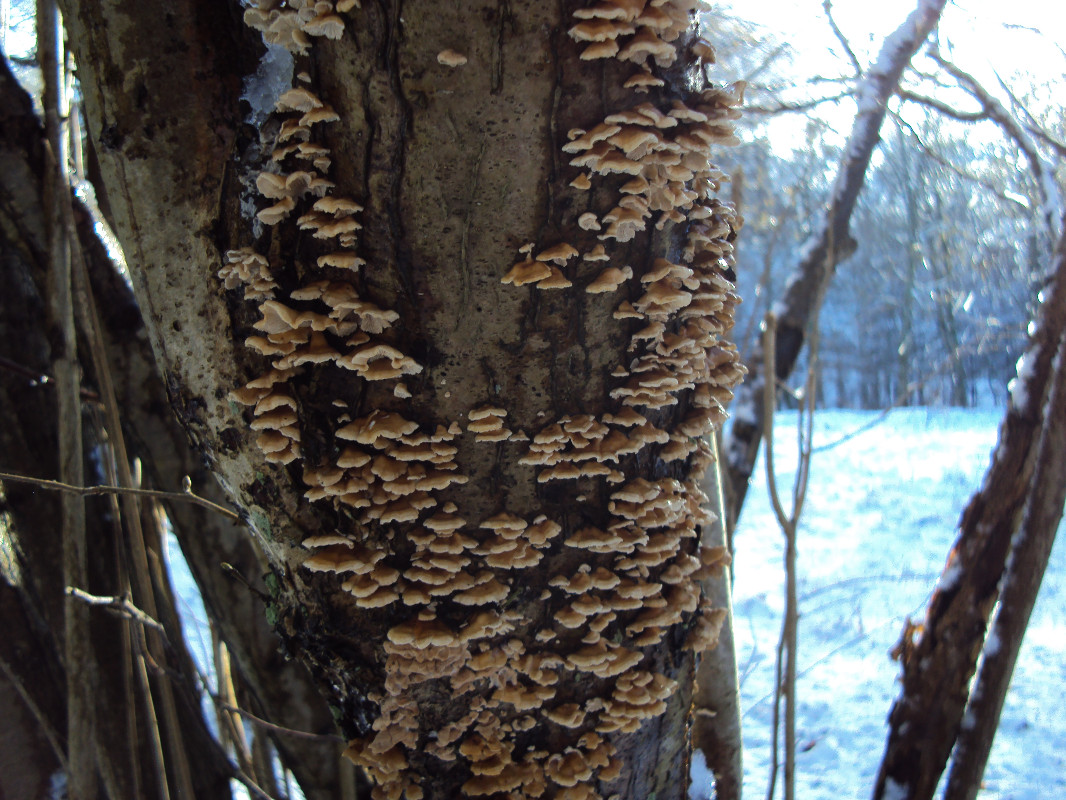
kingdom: Fungi
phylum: Basidiomycota
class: Agaricomycetes
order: Amylocorticiales
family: Amylocorticiaceae
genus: Plicaturopsis
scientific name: Plicaturopsis crispa
